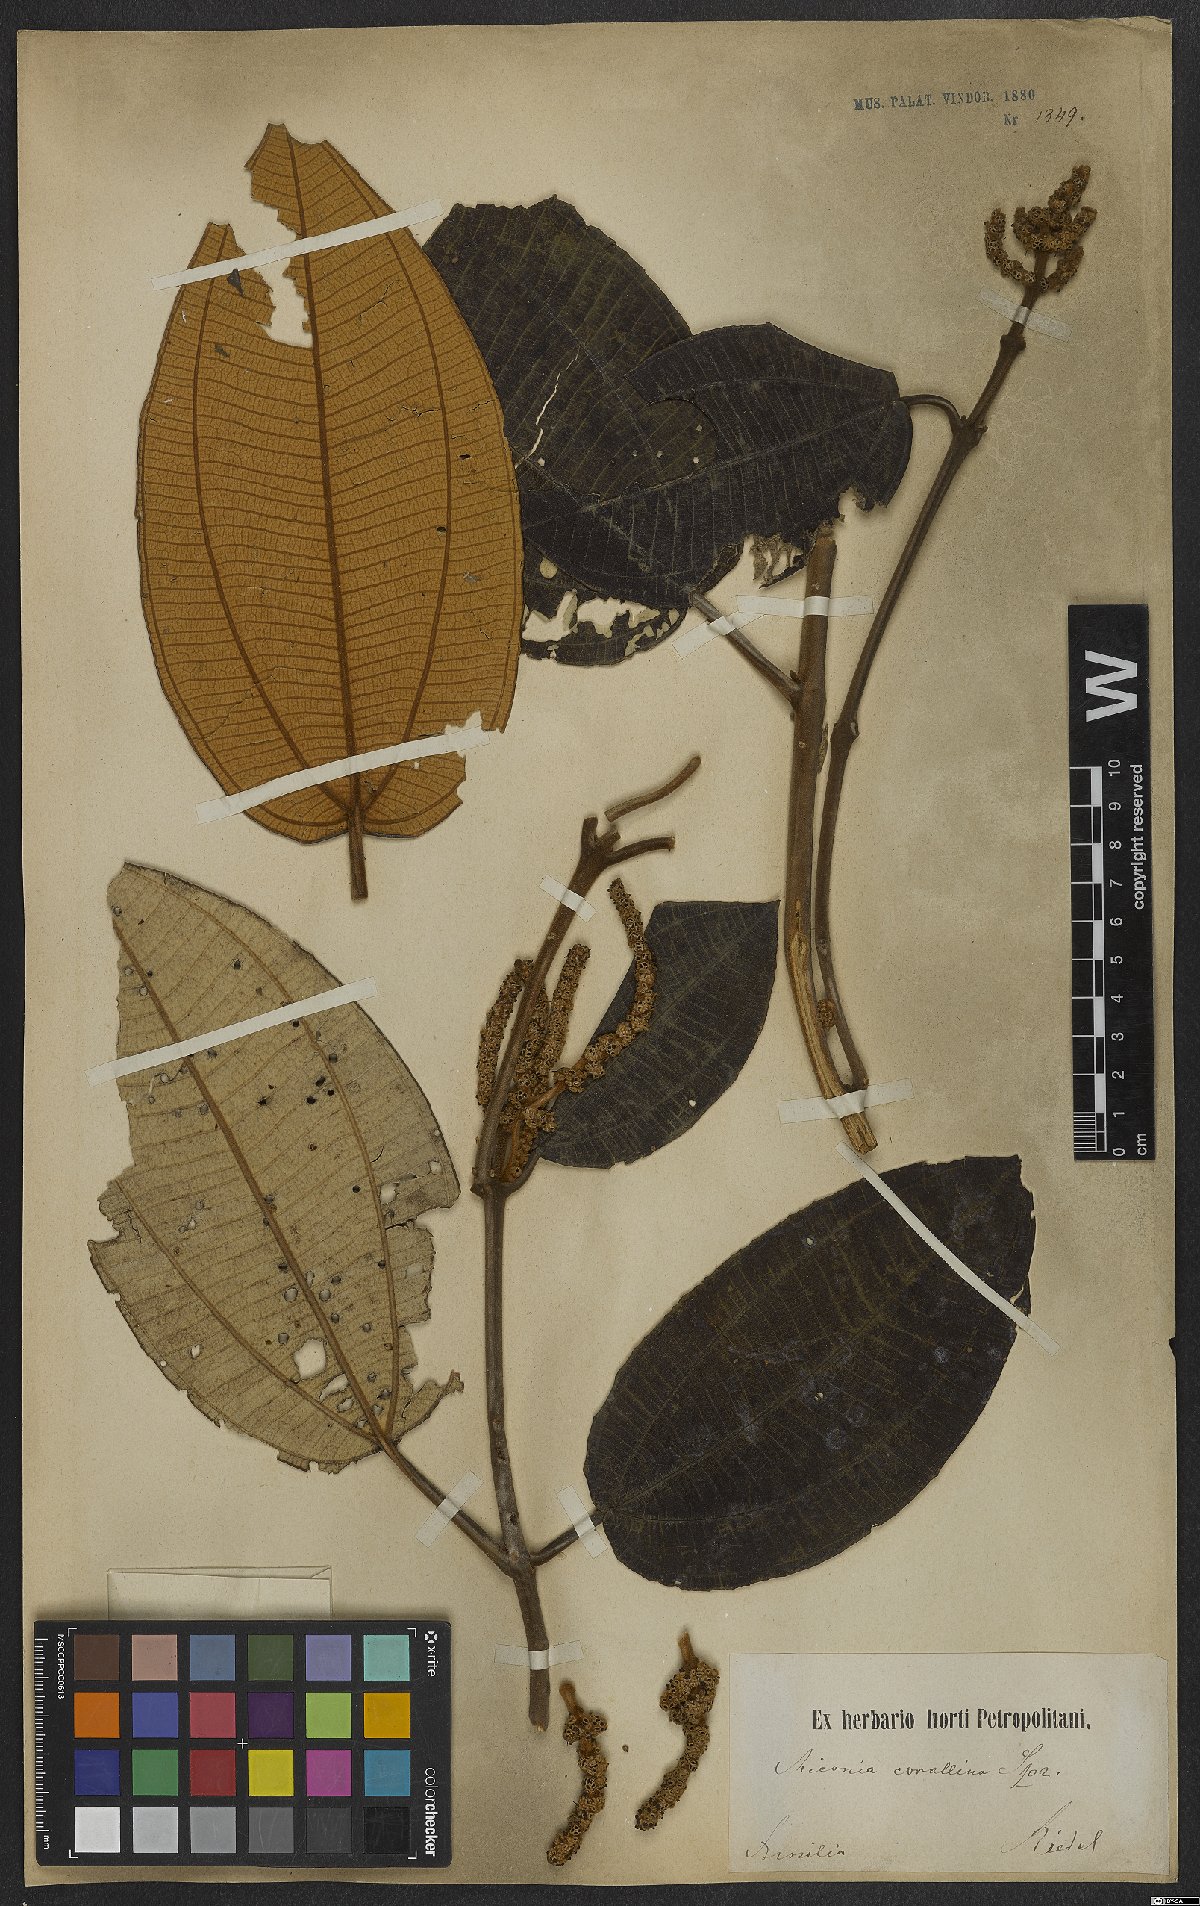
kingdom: Plantae
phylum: Tracheophyta
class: Magnoliopsida
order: Myrtales
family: Melastomataceae
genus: Miconia
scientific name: Miconia corallina
